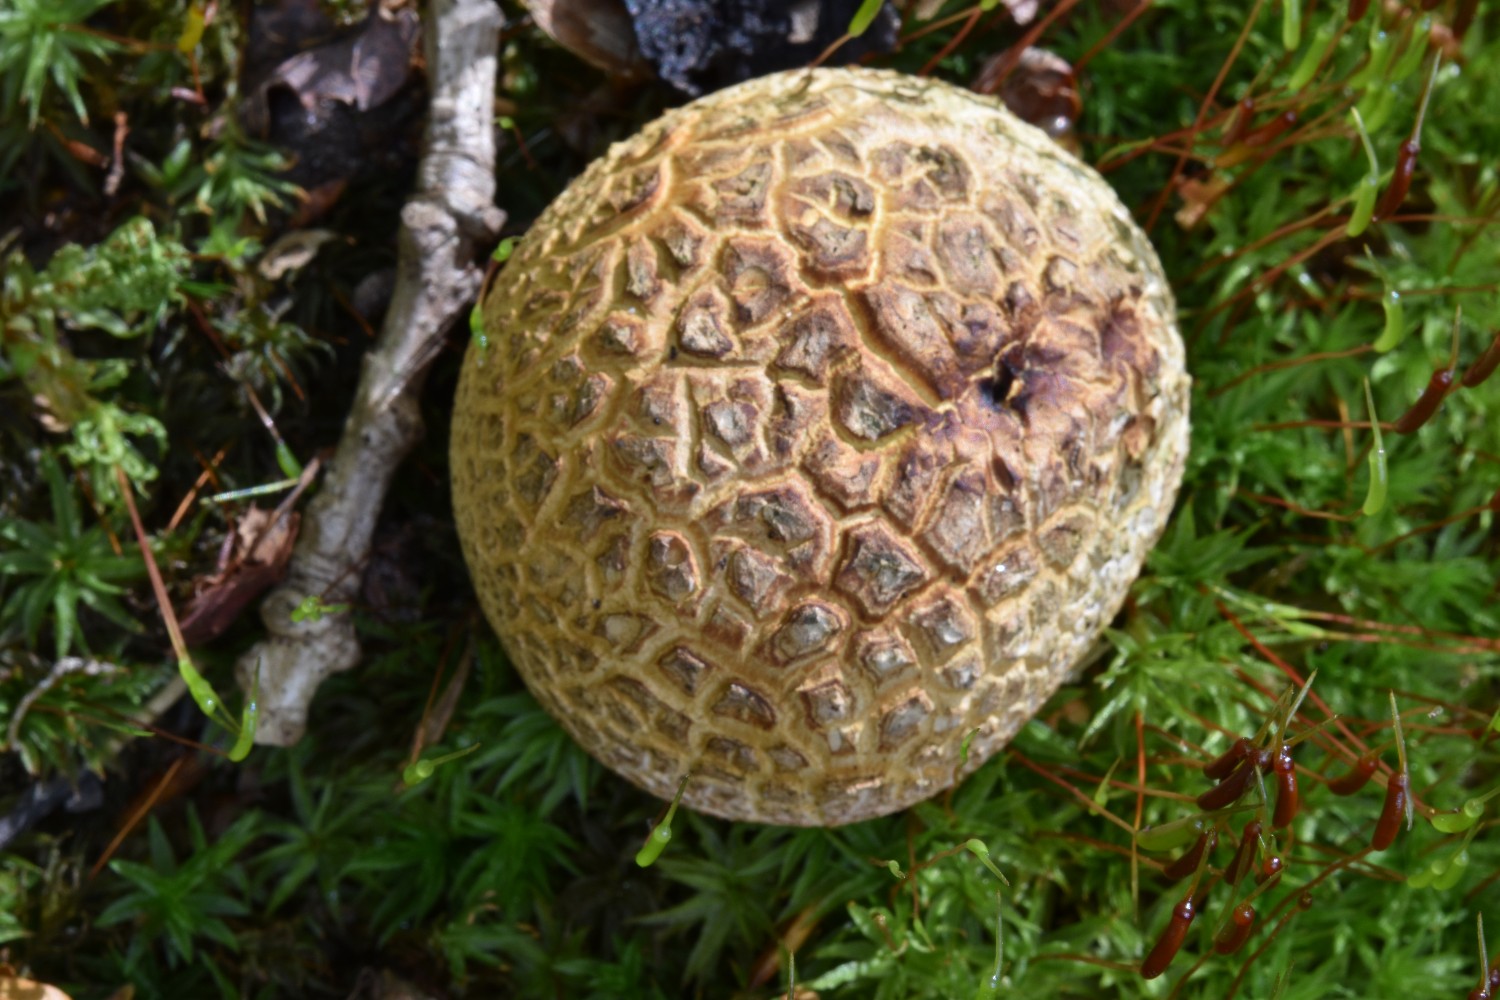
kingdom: Fungi
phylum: Basidiomycota
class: Agaricomycetes
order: Boletales
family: Sclerodermataceae
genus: Scleroderma
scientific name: Scleroderma citrinum
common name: almindelig bruskbold
